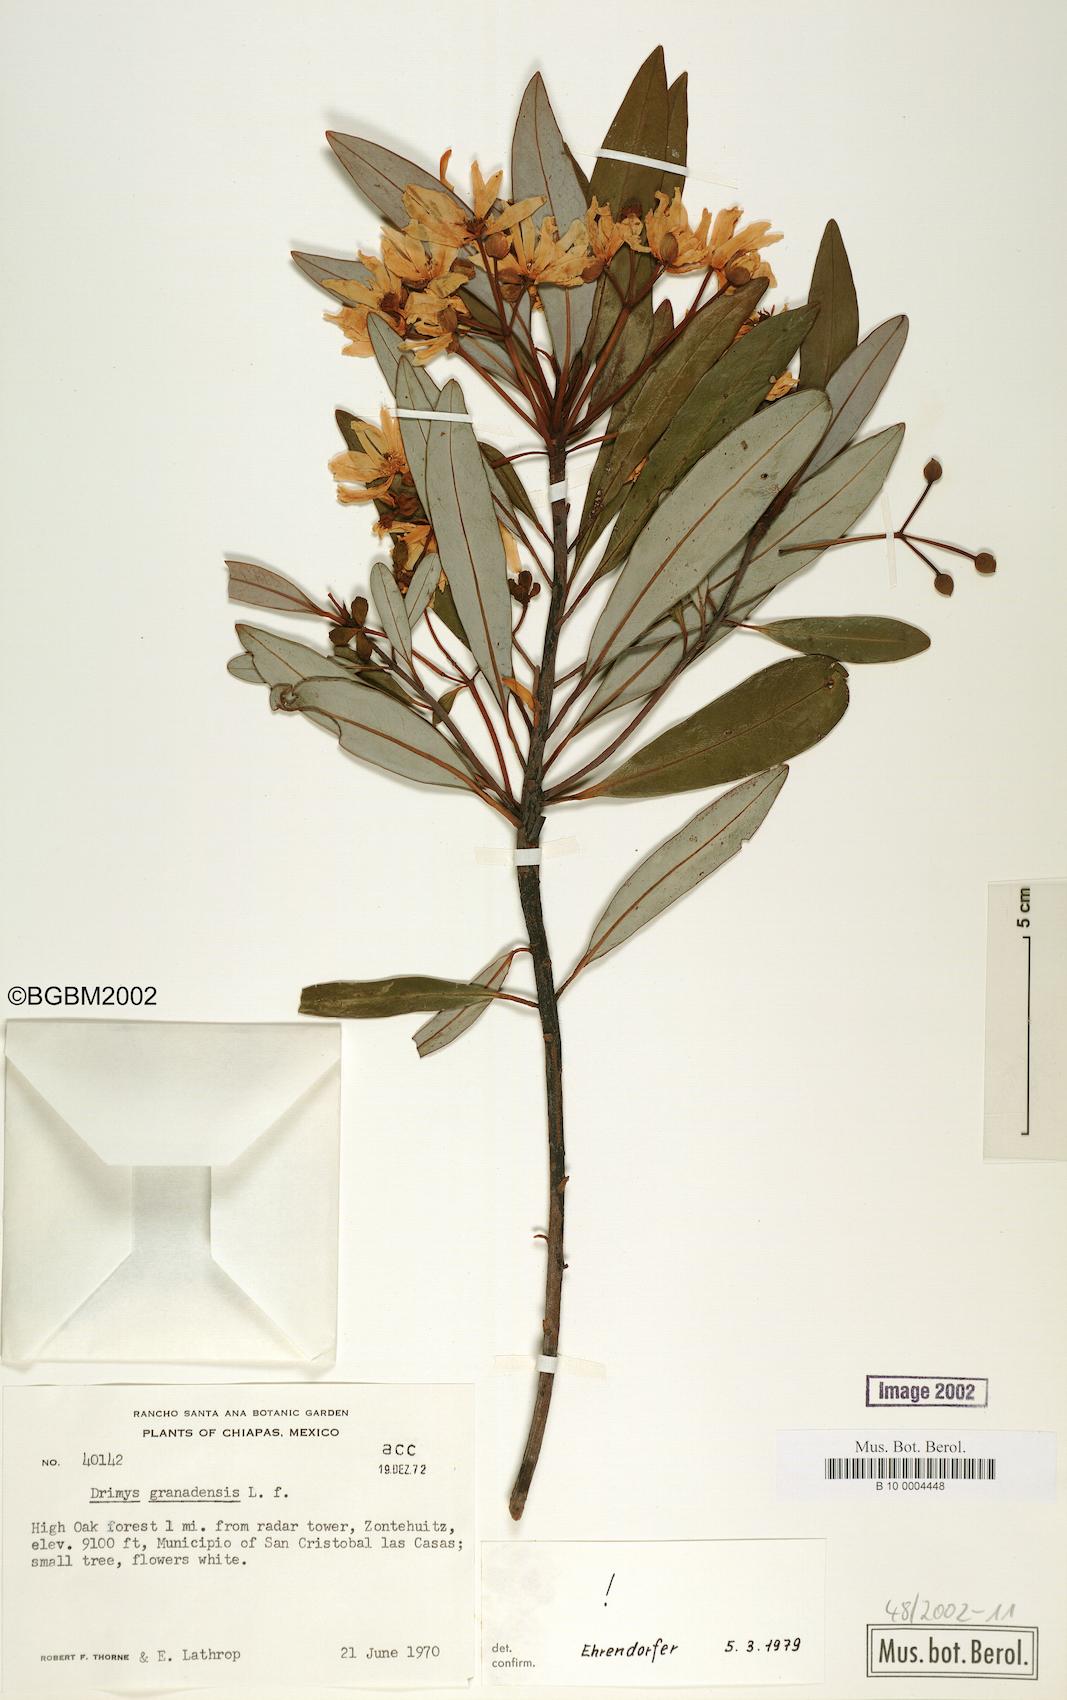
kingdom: Plantae
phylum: Tracheophyta
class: Magnoliopsida
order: Canellales
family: Winteraceae
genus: Drimys
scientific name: Drimys granadensis
